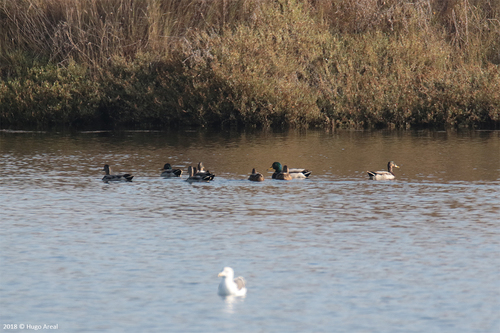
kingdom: Animalia
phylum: Chordata
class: Aves
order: Anseriformes
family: Anatidae
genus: Anas
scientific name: Anas platyrhynchos
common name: Mallard
